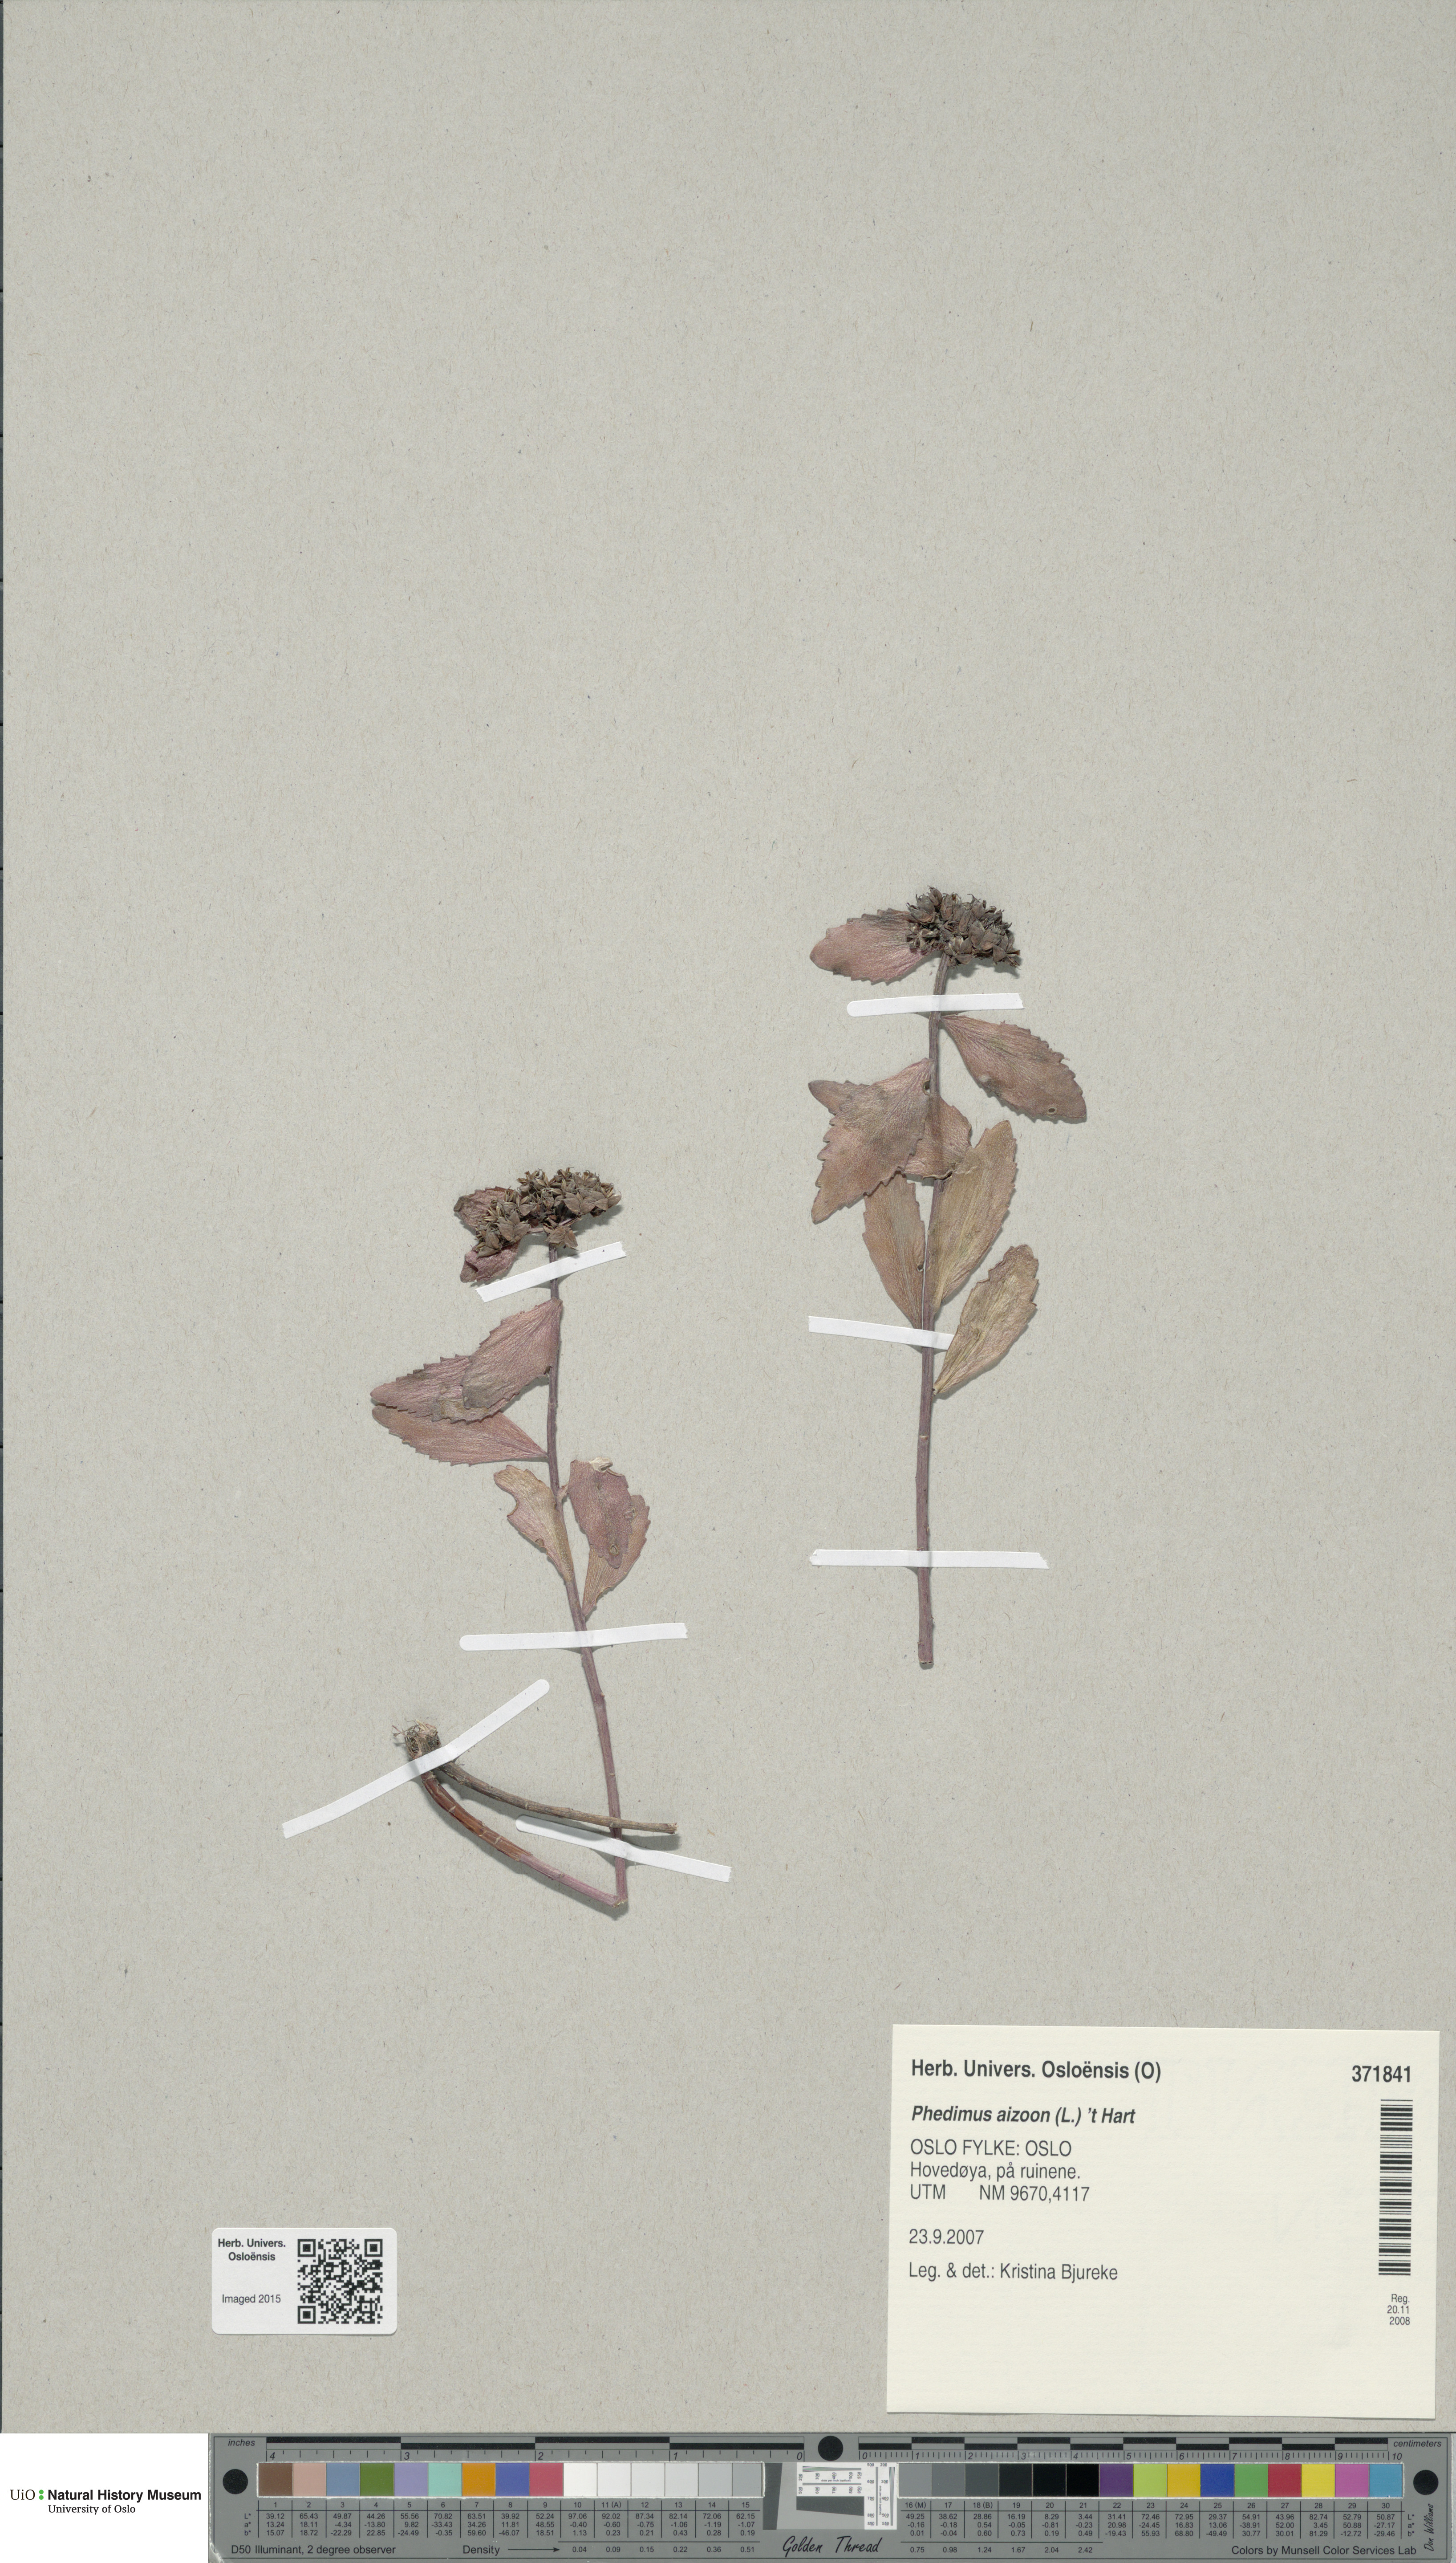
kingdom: Plantae
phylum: Tracheophyta
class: Magnoliopsida
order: Saxifragales
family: Crassulaceae
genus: Phedimus
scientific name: Phedimus aizoon
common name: Orpin aizoon
